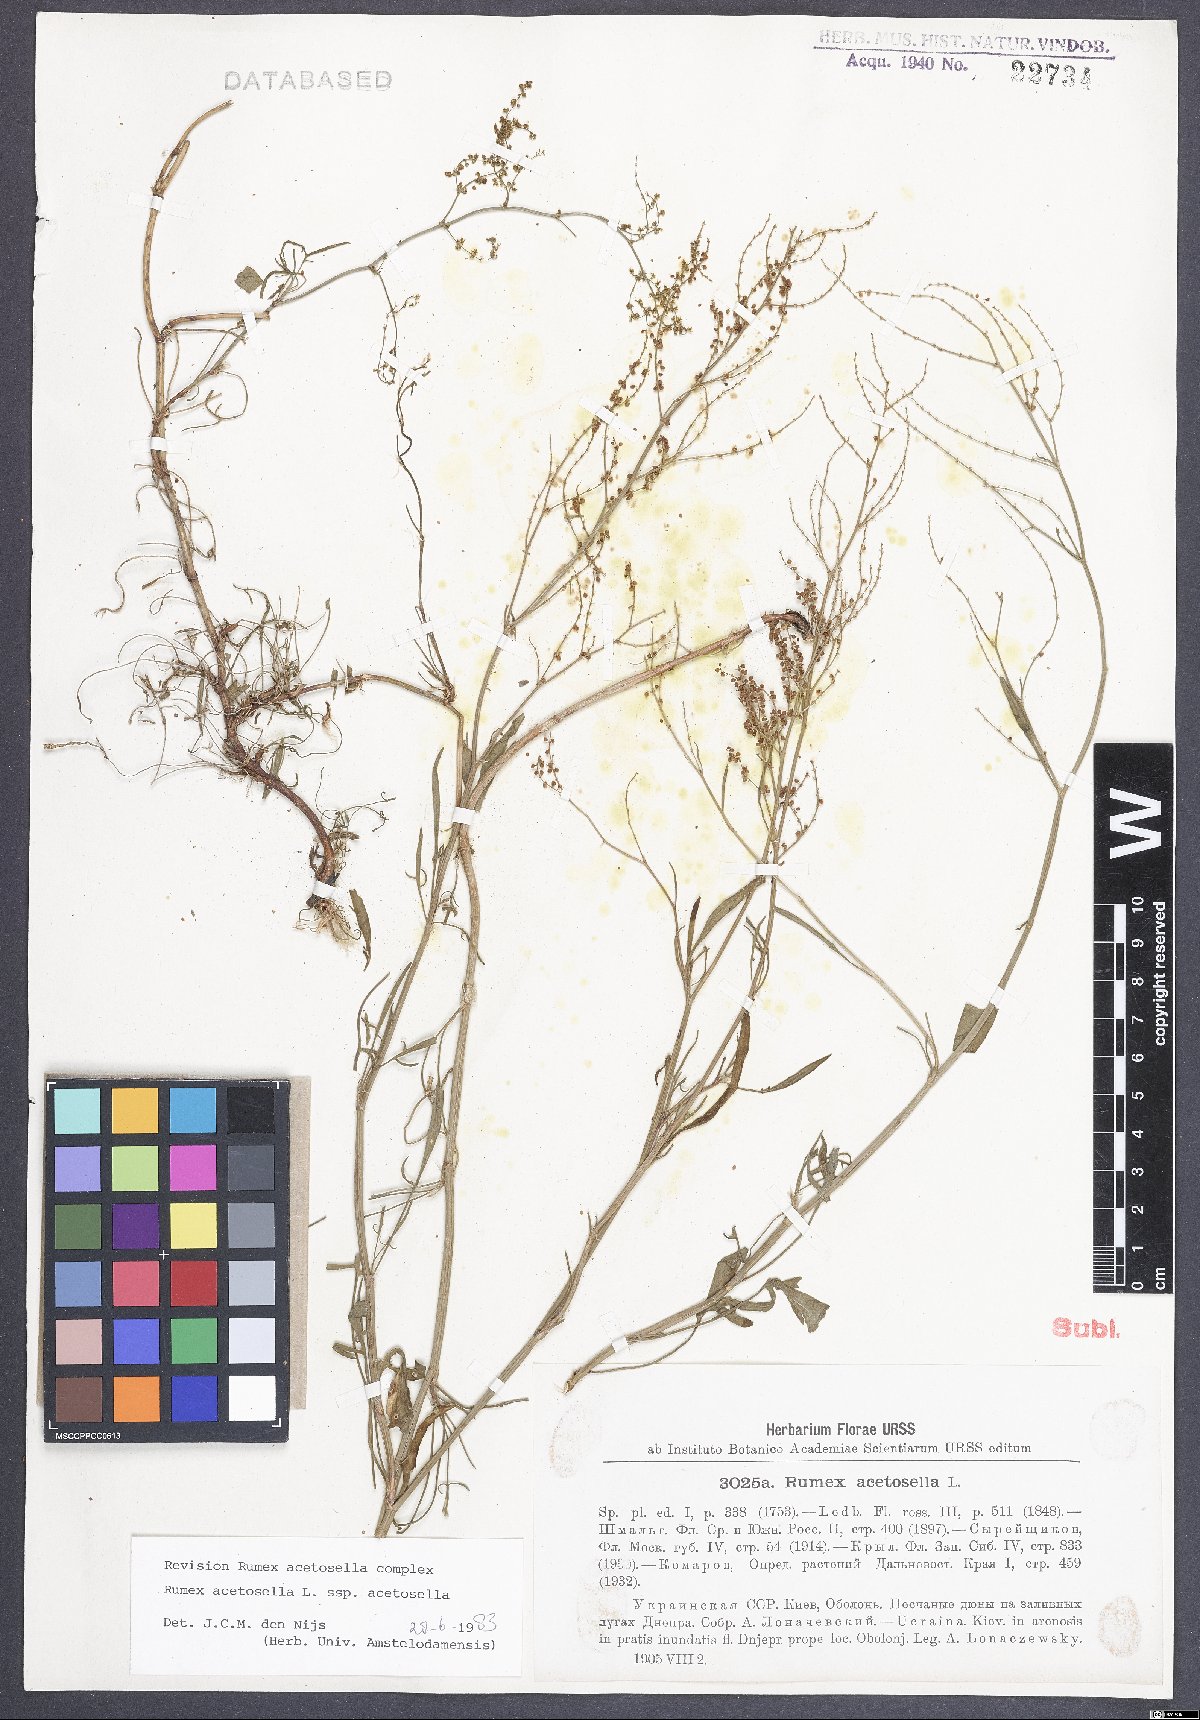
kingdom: Plantae
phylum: Tracheophyta
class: Magnoliopsida
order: Caryophyllales
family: Polygonaceae
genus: Rumex
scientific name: Rumex acetosella
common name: Common sheep sorrel
